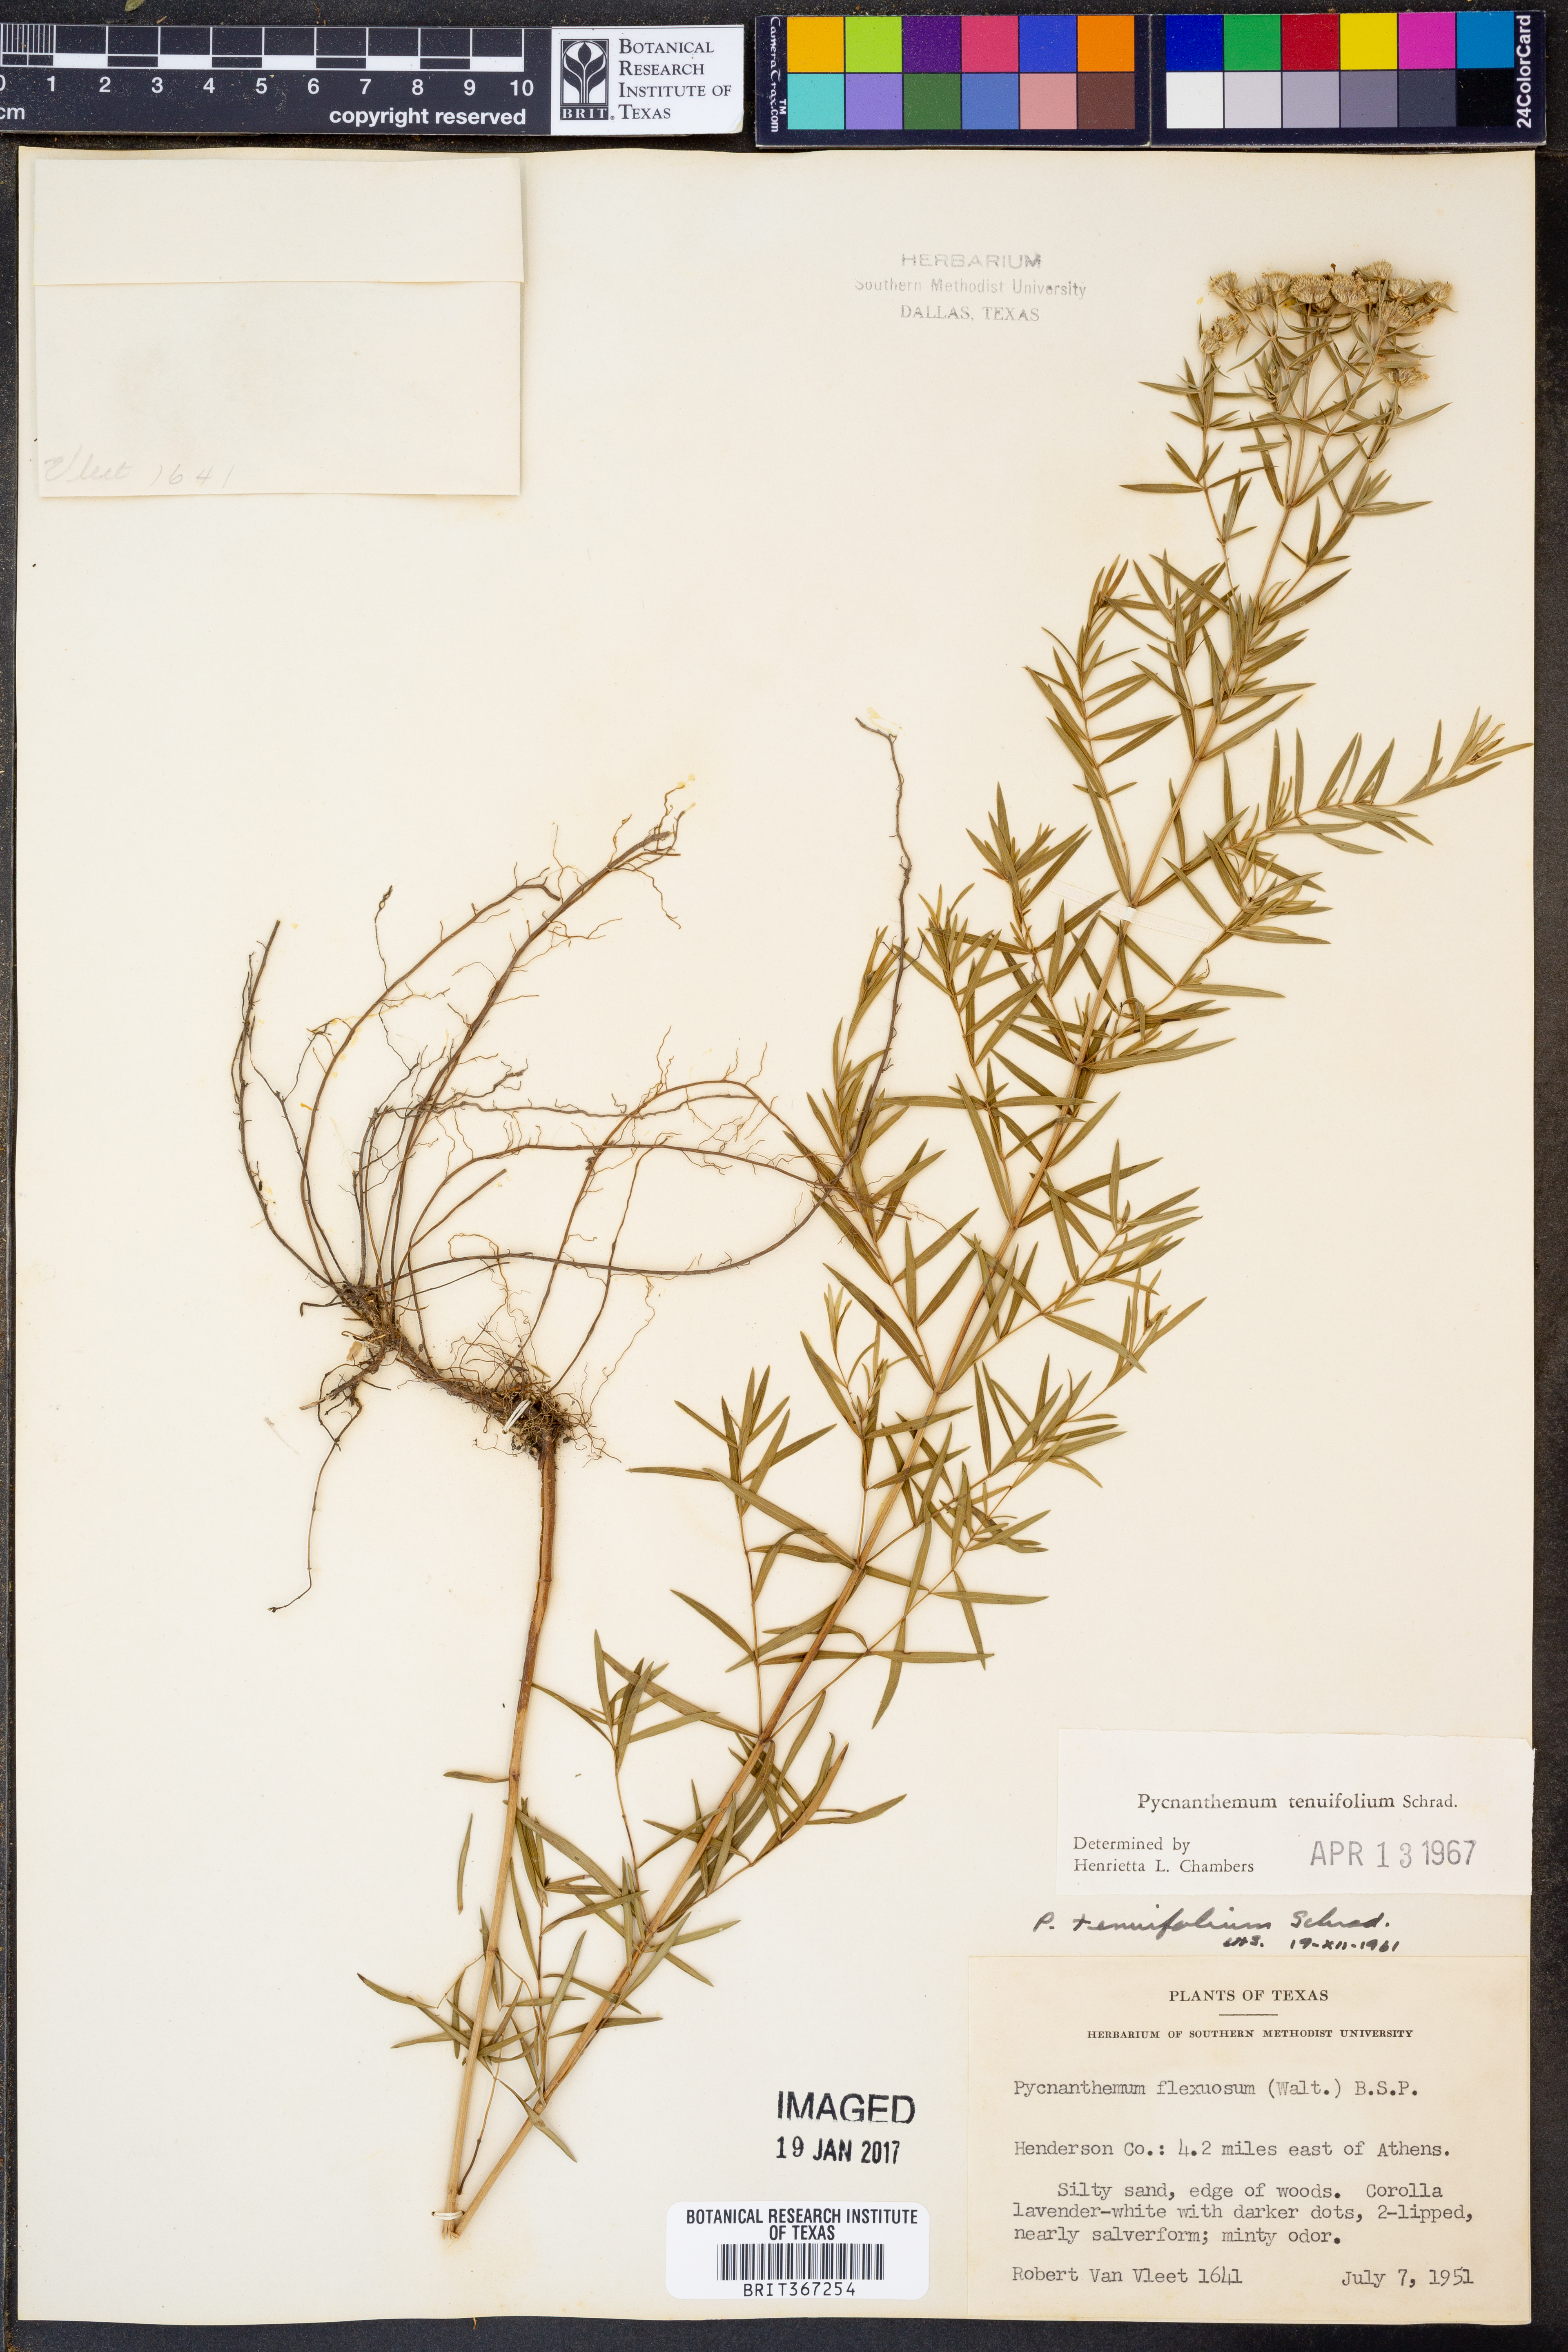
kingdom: Plantae
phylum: Tracheophyta
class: Magnoliopsida
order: Lamiales
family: Lamiaceae
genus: Pycnanthemum
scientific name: Pycnanthemum tenuifolium
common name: Narrow-leaf mountain-mint
